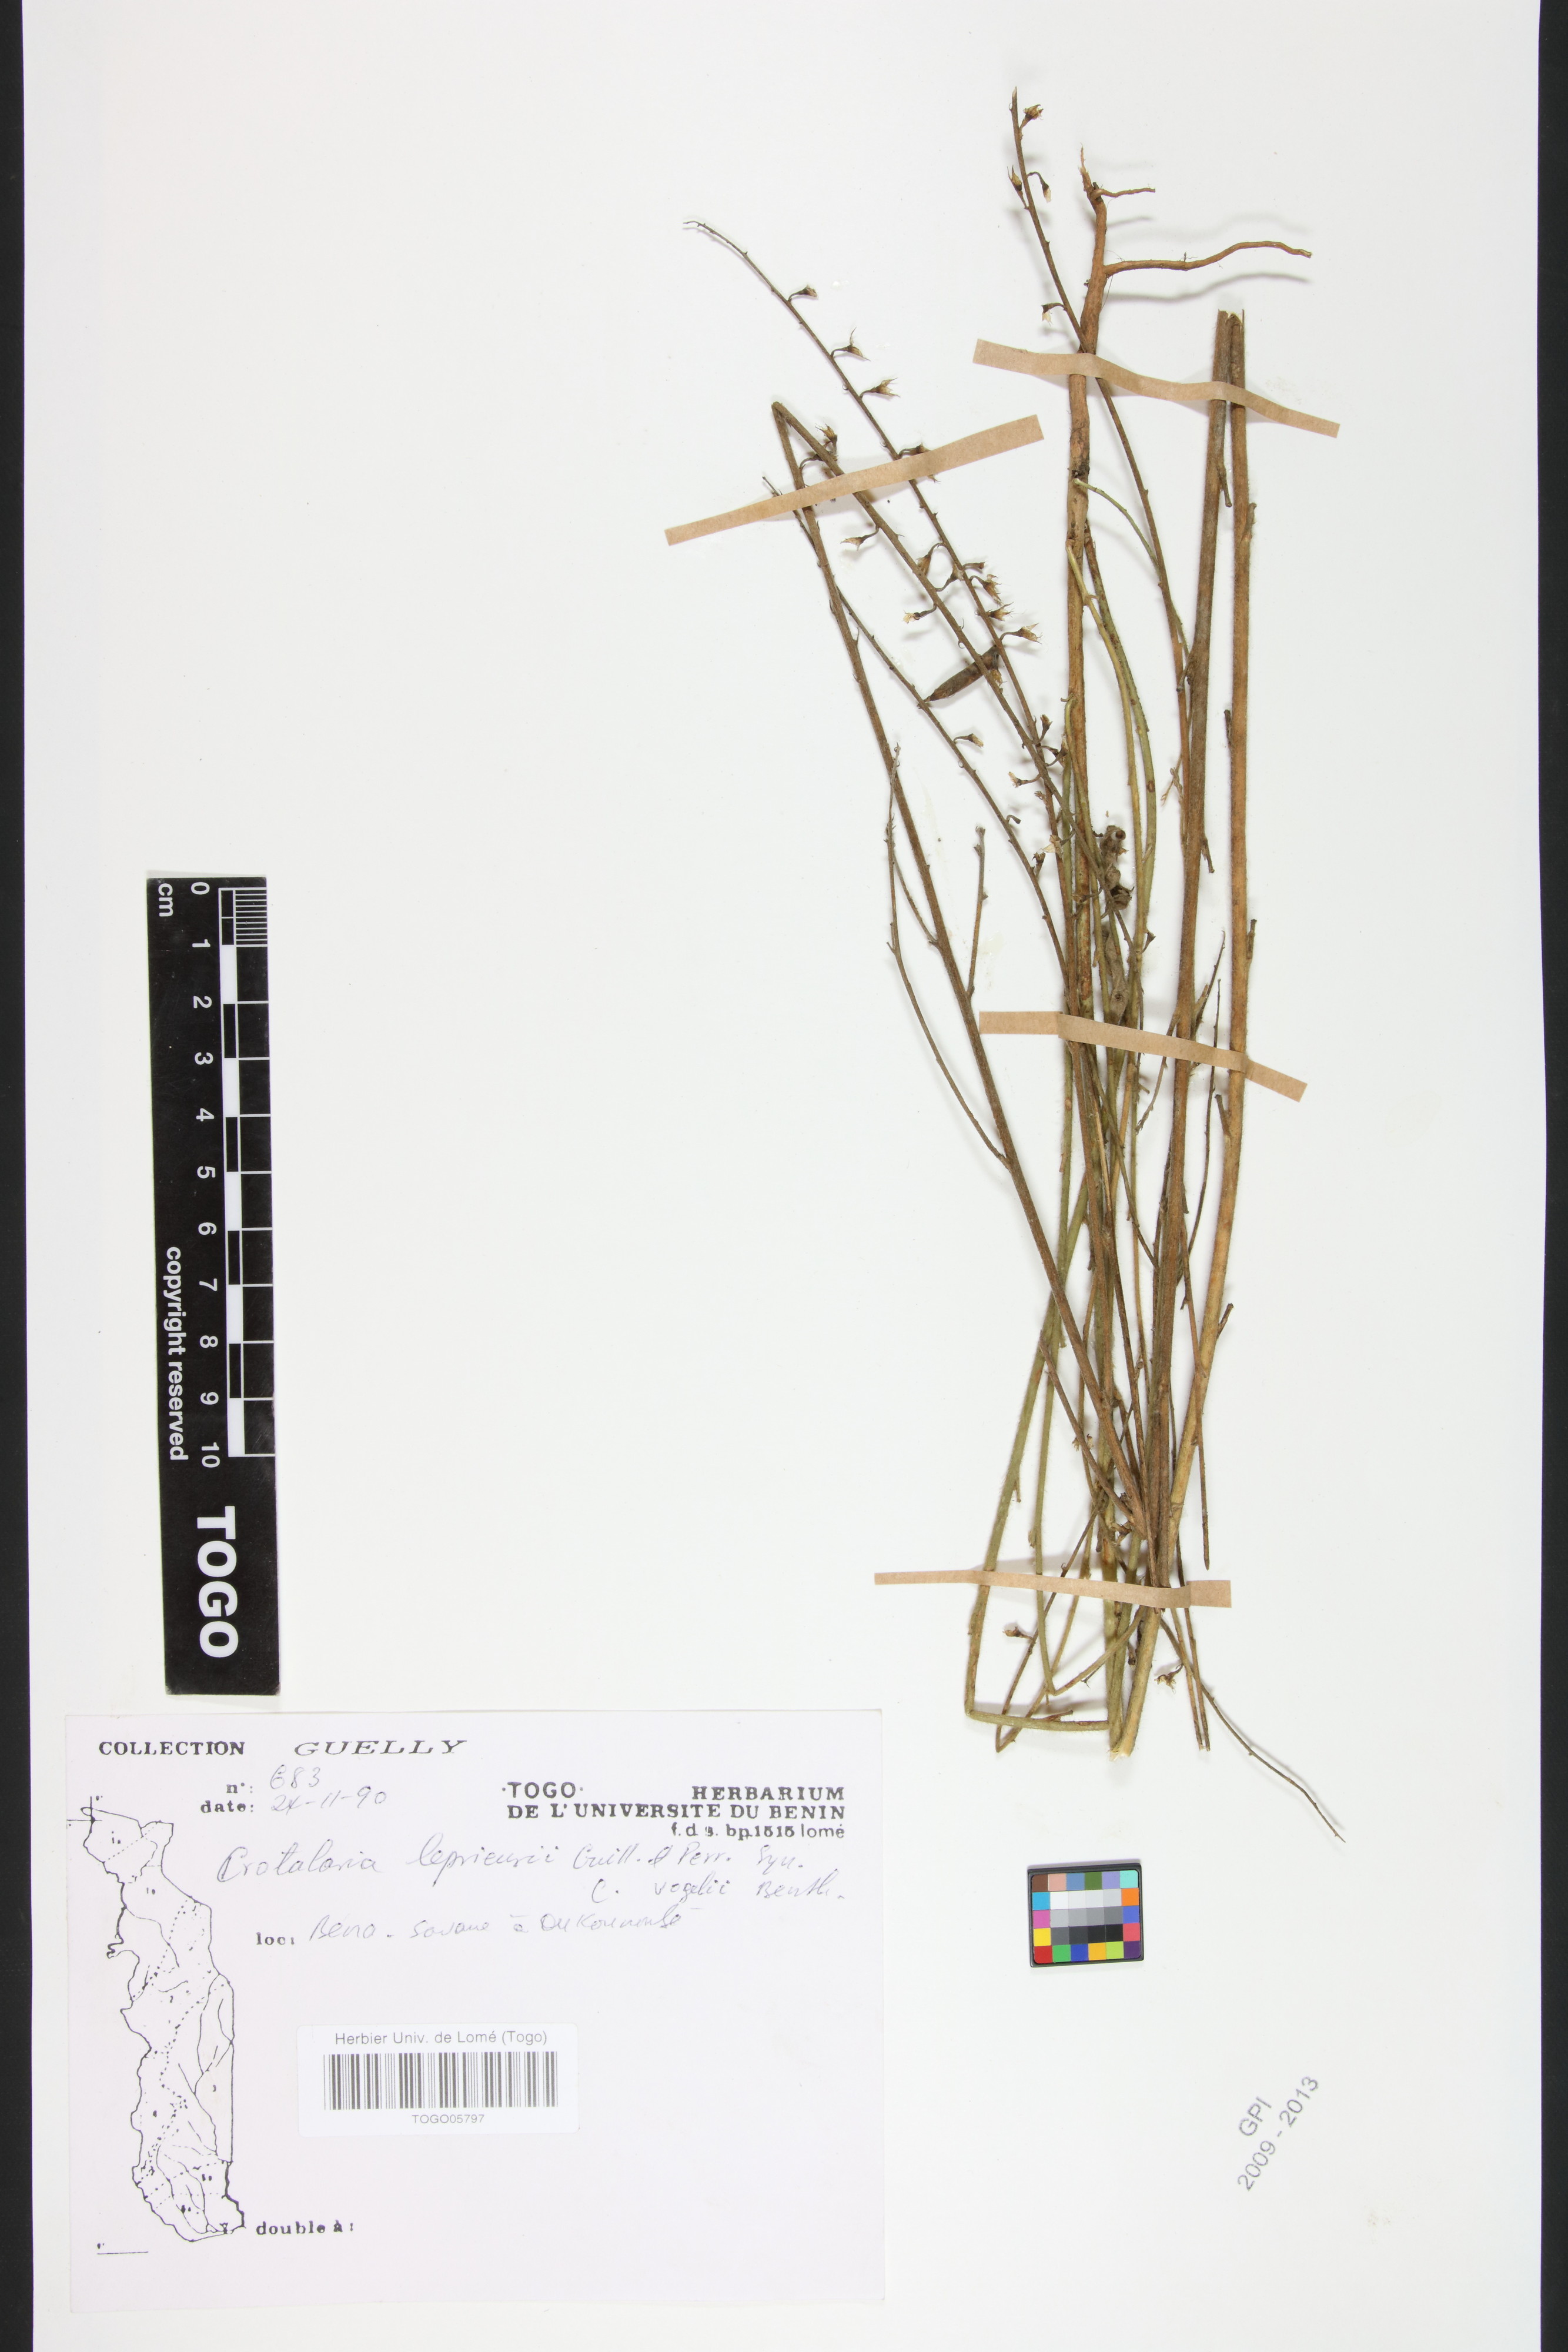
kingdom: Plantae
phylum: Tracheophyta
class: Magnoliopsida
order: Fabales
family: Fabaceae
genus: Crotalaria
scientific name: Crotalaria leprieurii
